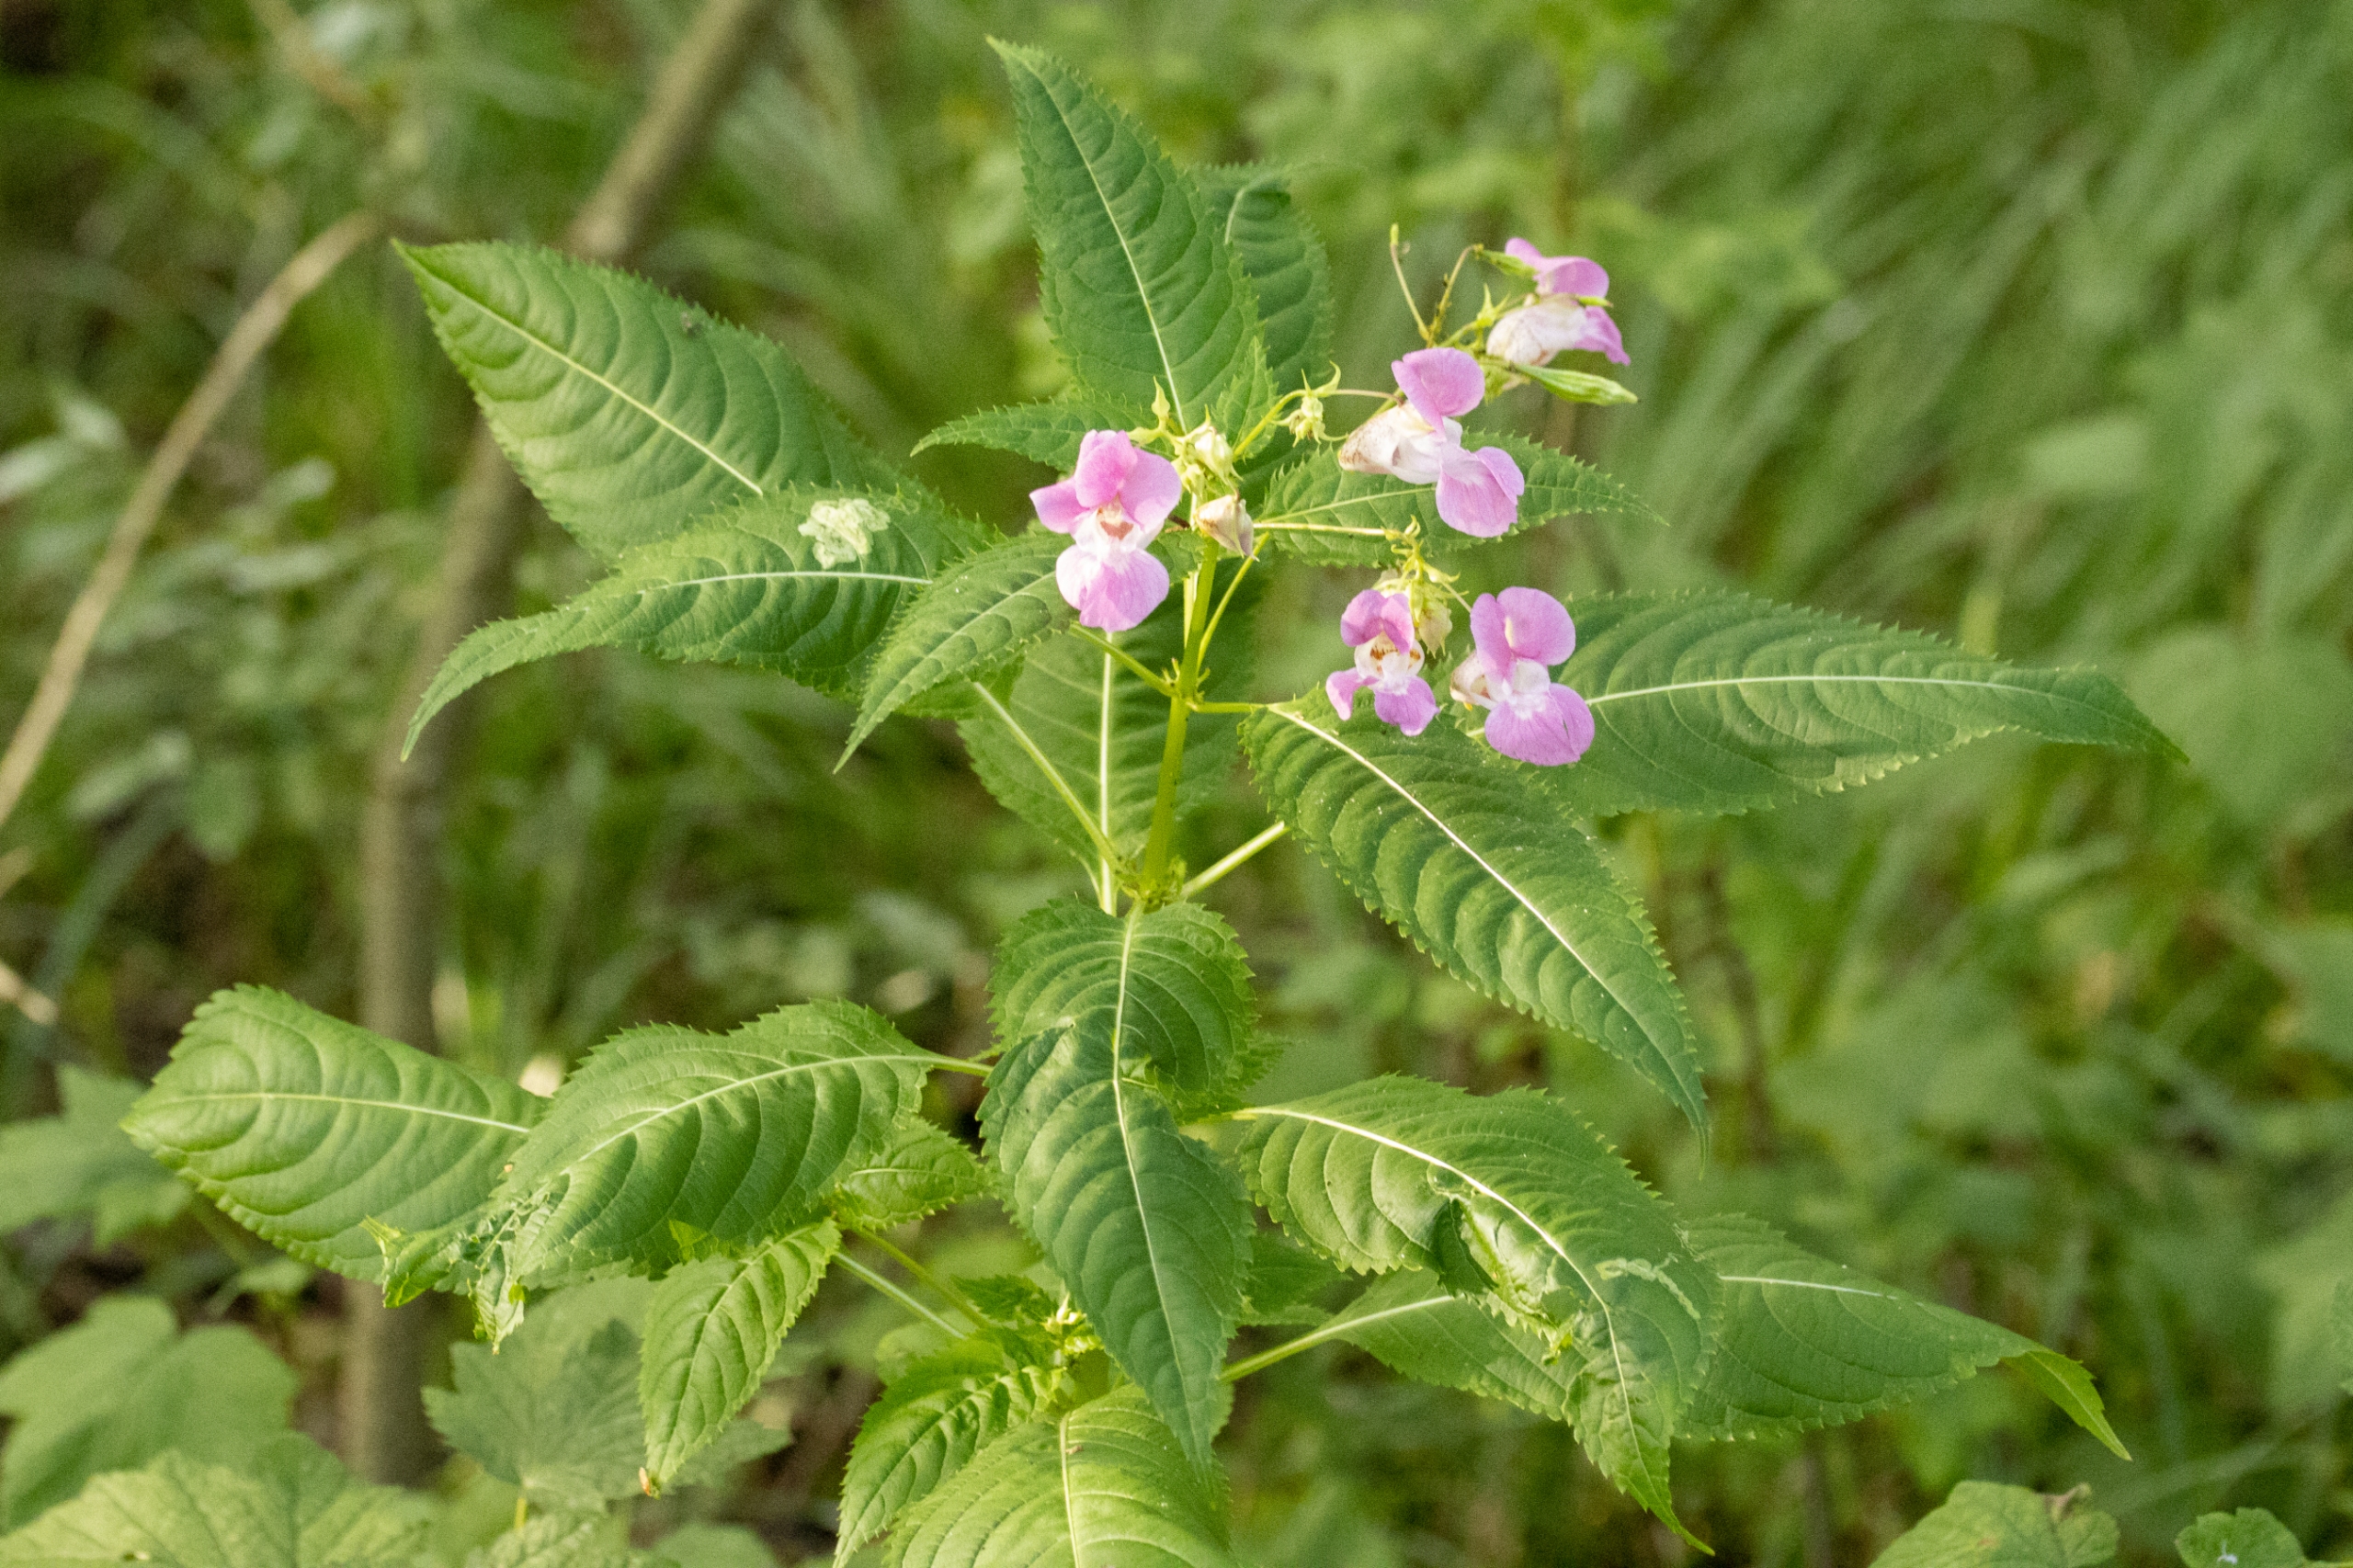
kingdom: Plantae
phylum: Tracheophyta
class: Magnoliopsida
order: Ericales
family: Balsaminaceae
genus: Impatiens
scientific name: Impatiens glandulifera
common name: Kæmpe-balsamin
